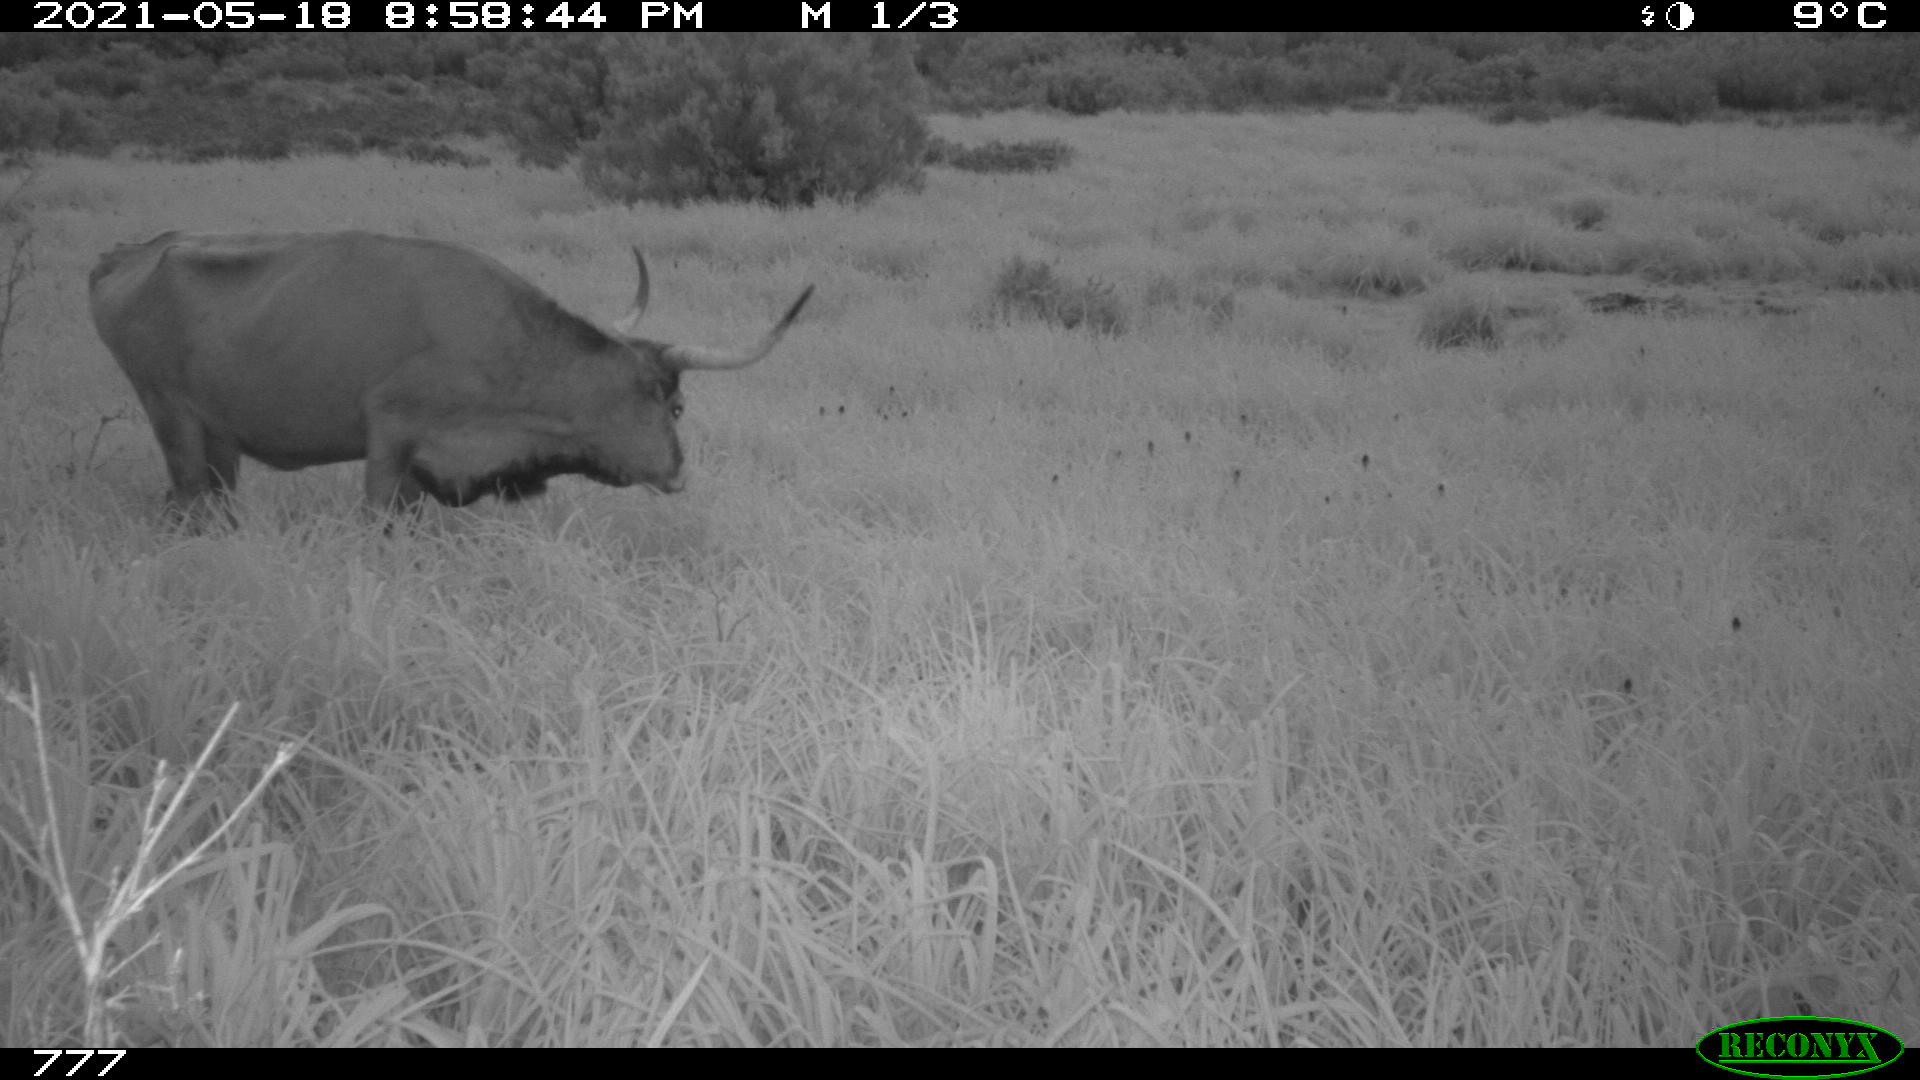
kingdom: Animalia
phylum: Chordata
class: Mammalia
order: Artiodactyla
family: Bovidae
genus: Bos
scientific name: Bos taurus
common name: Domesticated cattle
